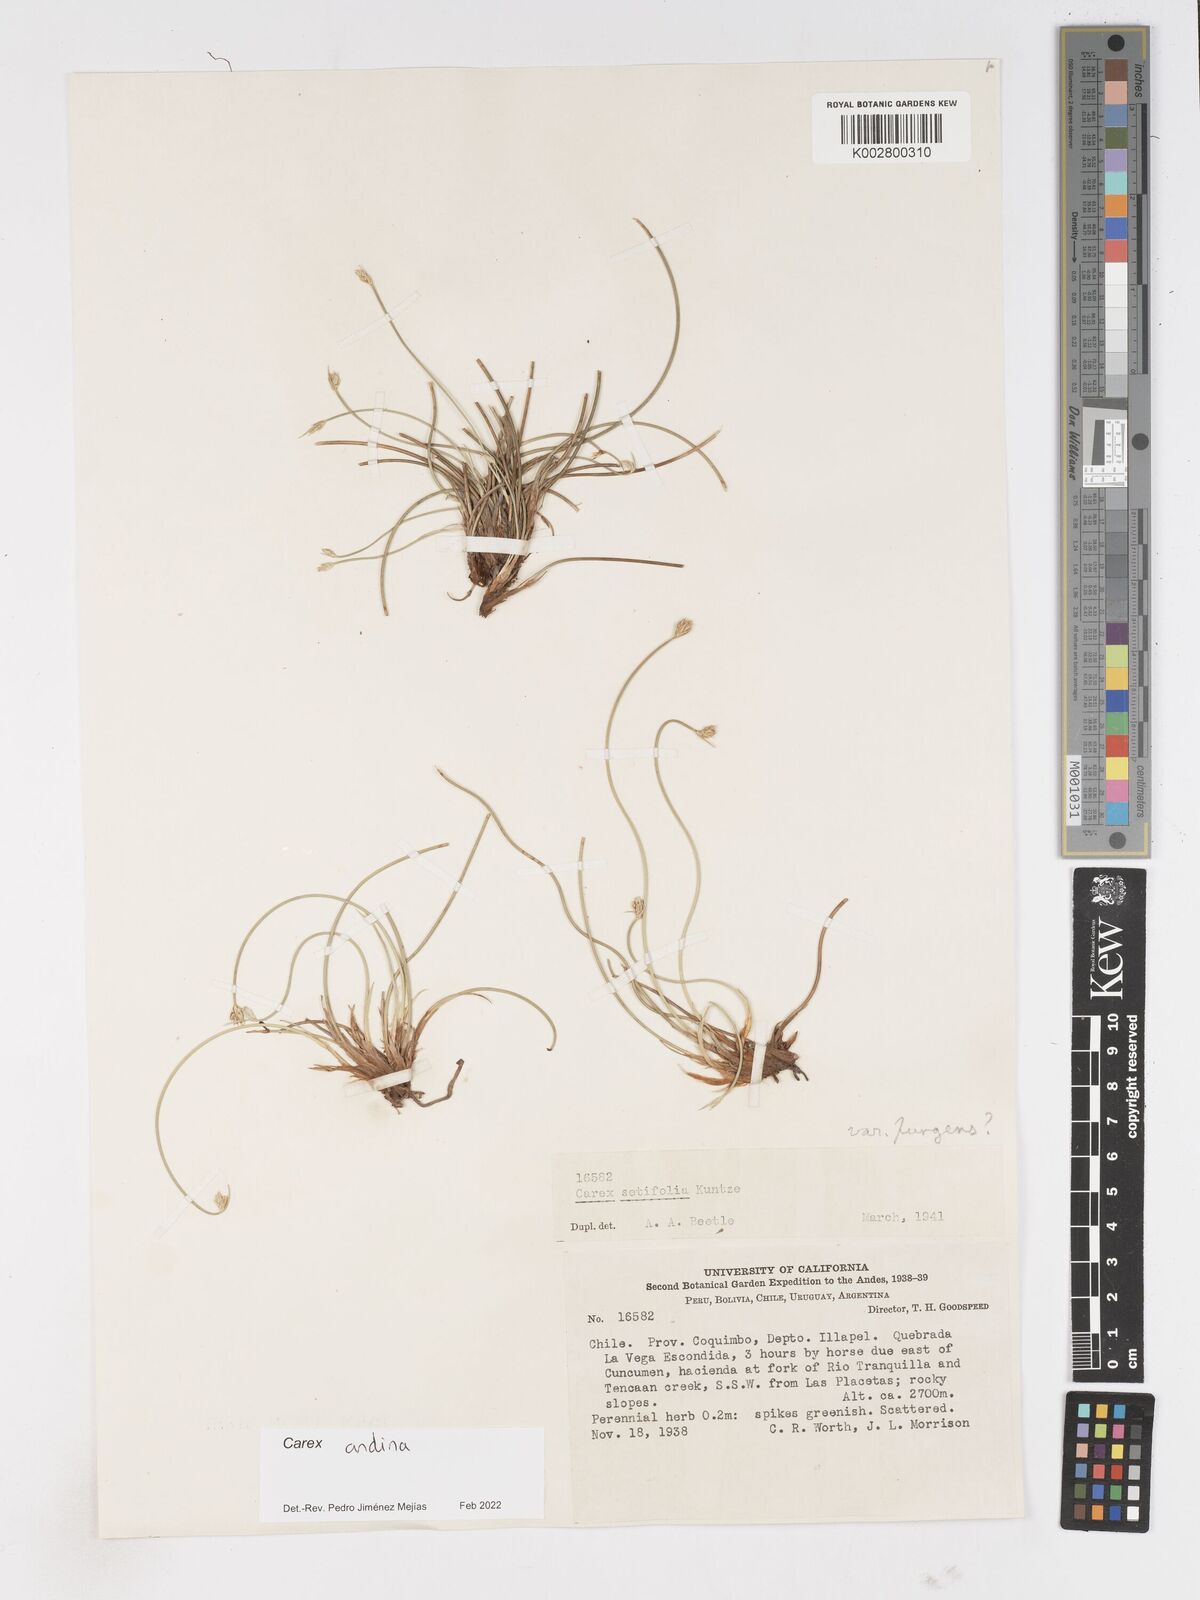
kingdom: Plantae
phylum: Tracheophyta
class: Liliopsida
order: Poales
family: Cyperaceae
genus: Carex
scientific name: Carex andina
